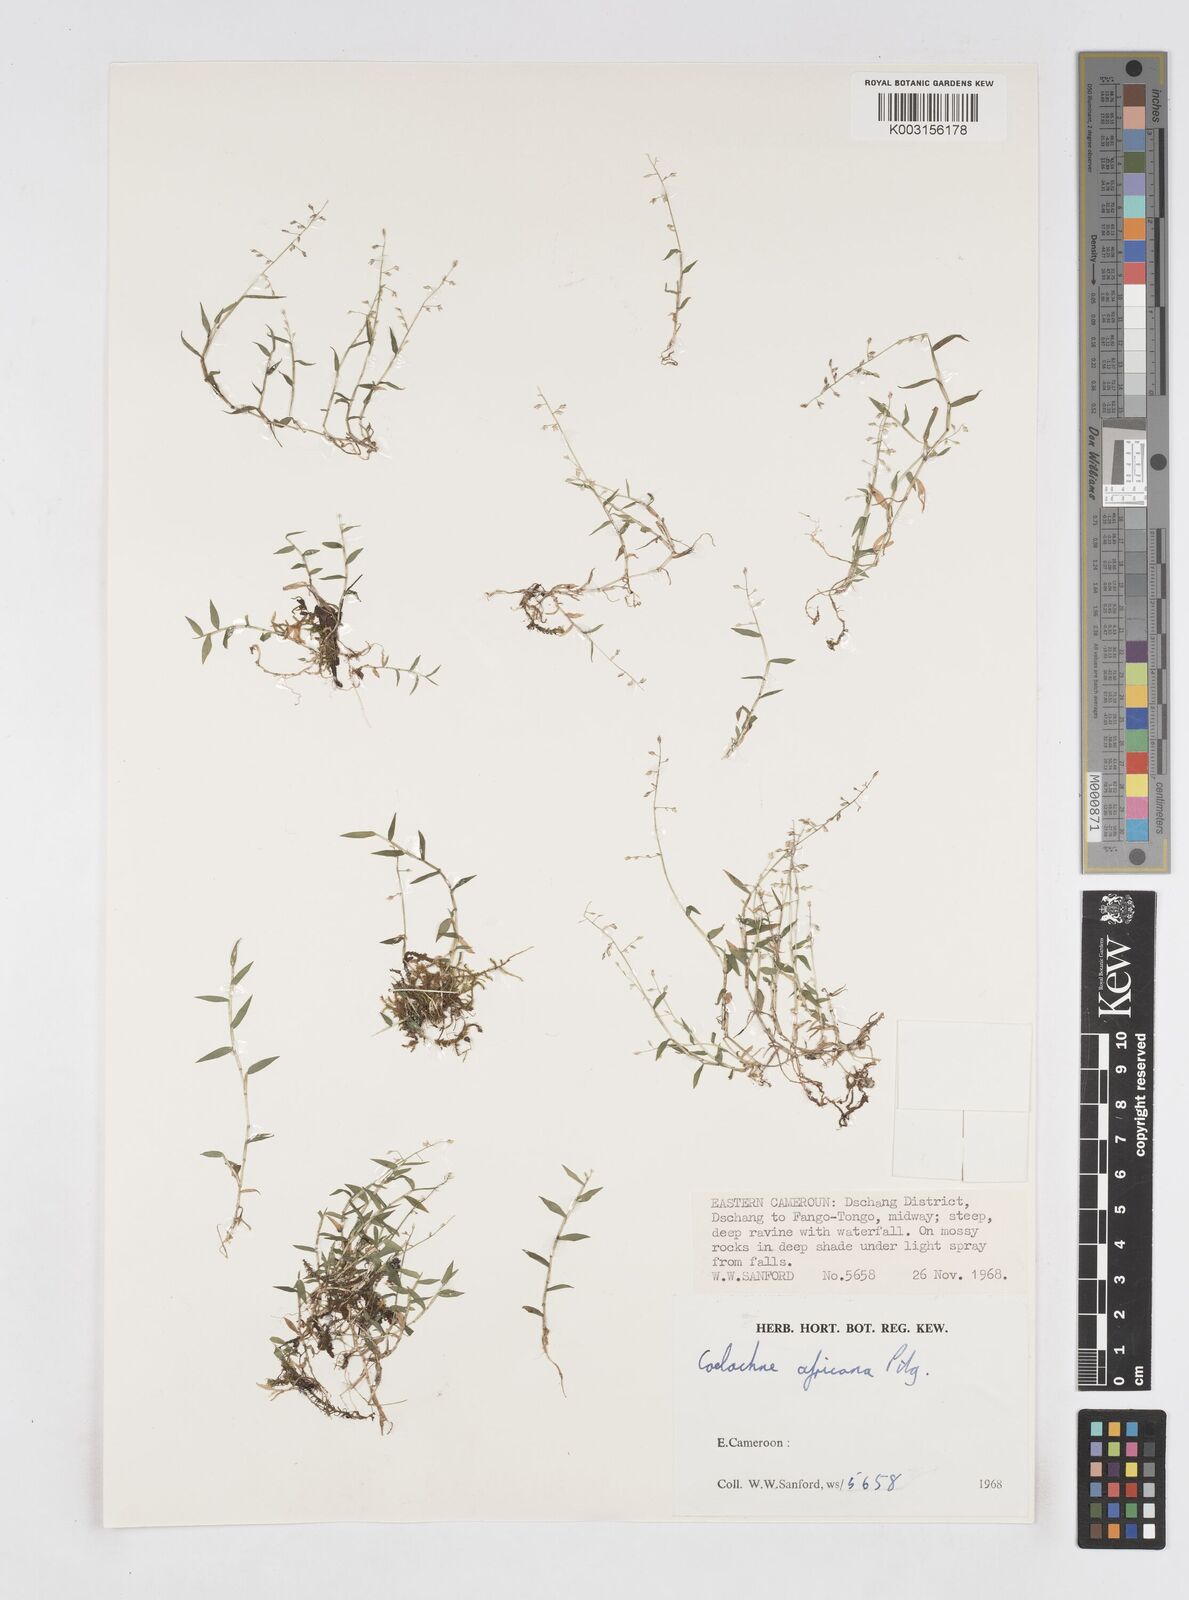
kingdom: Plantae
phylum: Tracheophyta
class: Liliopsida
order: Poales
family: Poaceae
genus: Coelachne
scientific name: Coelachne africana
